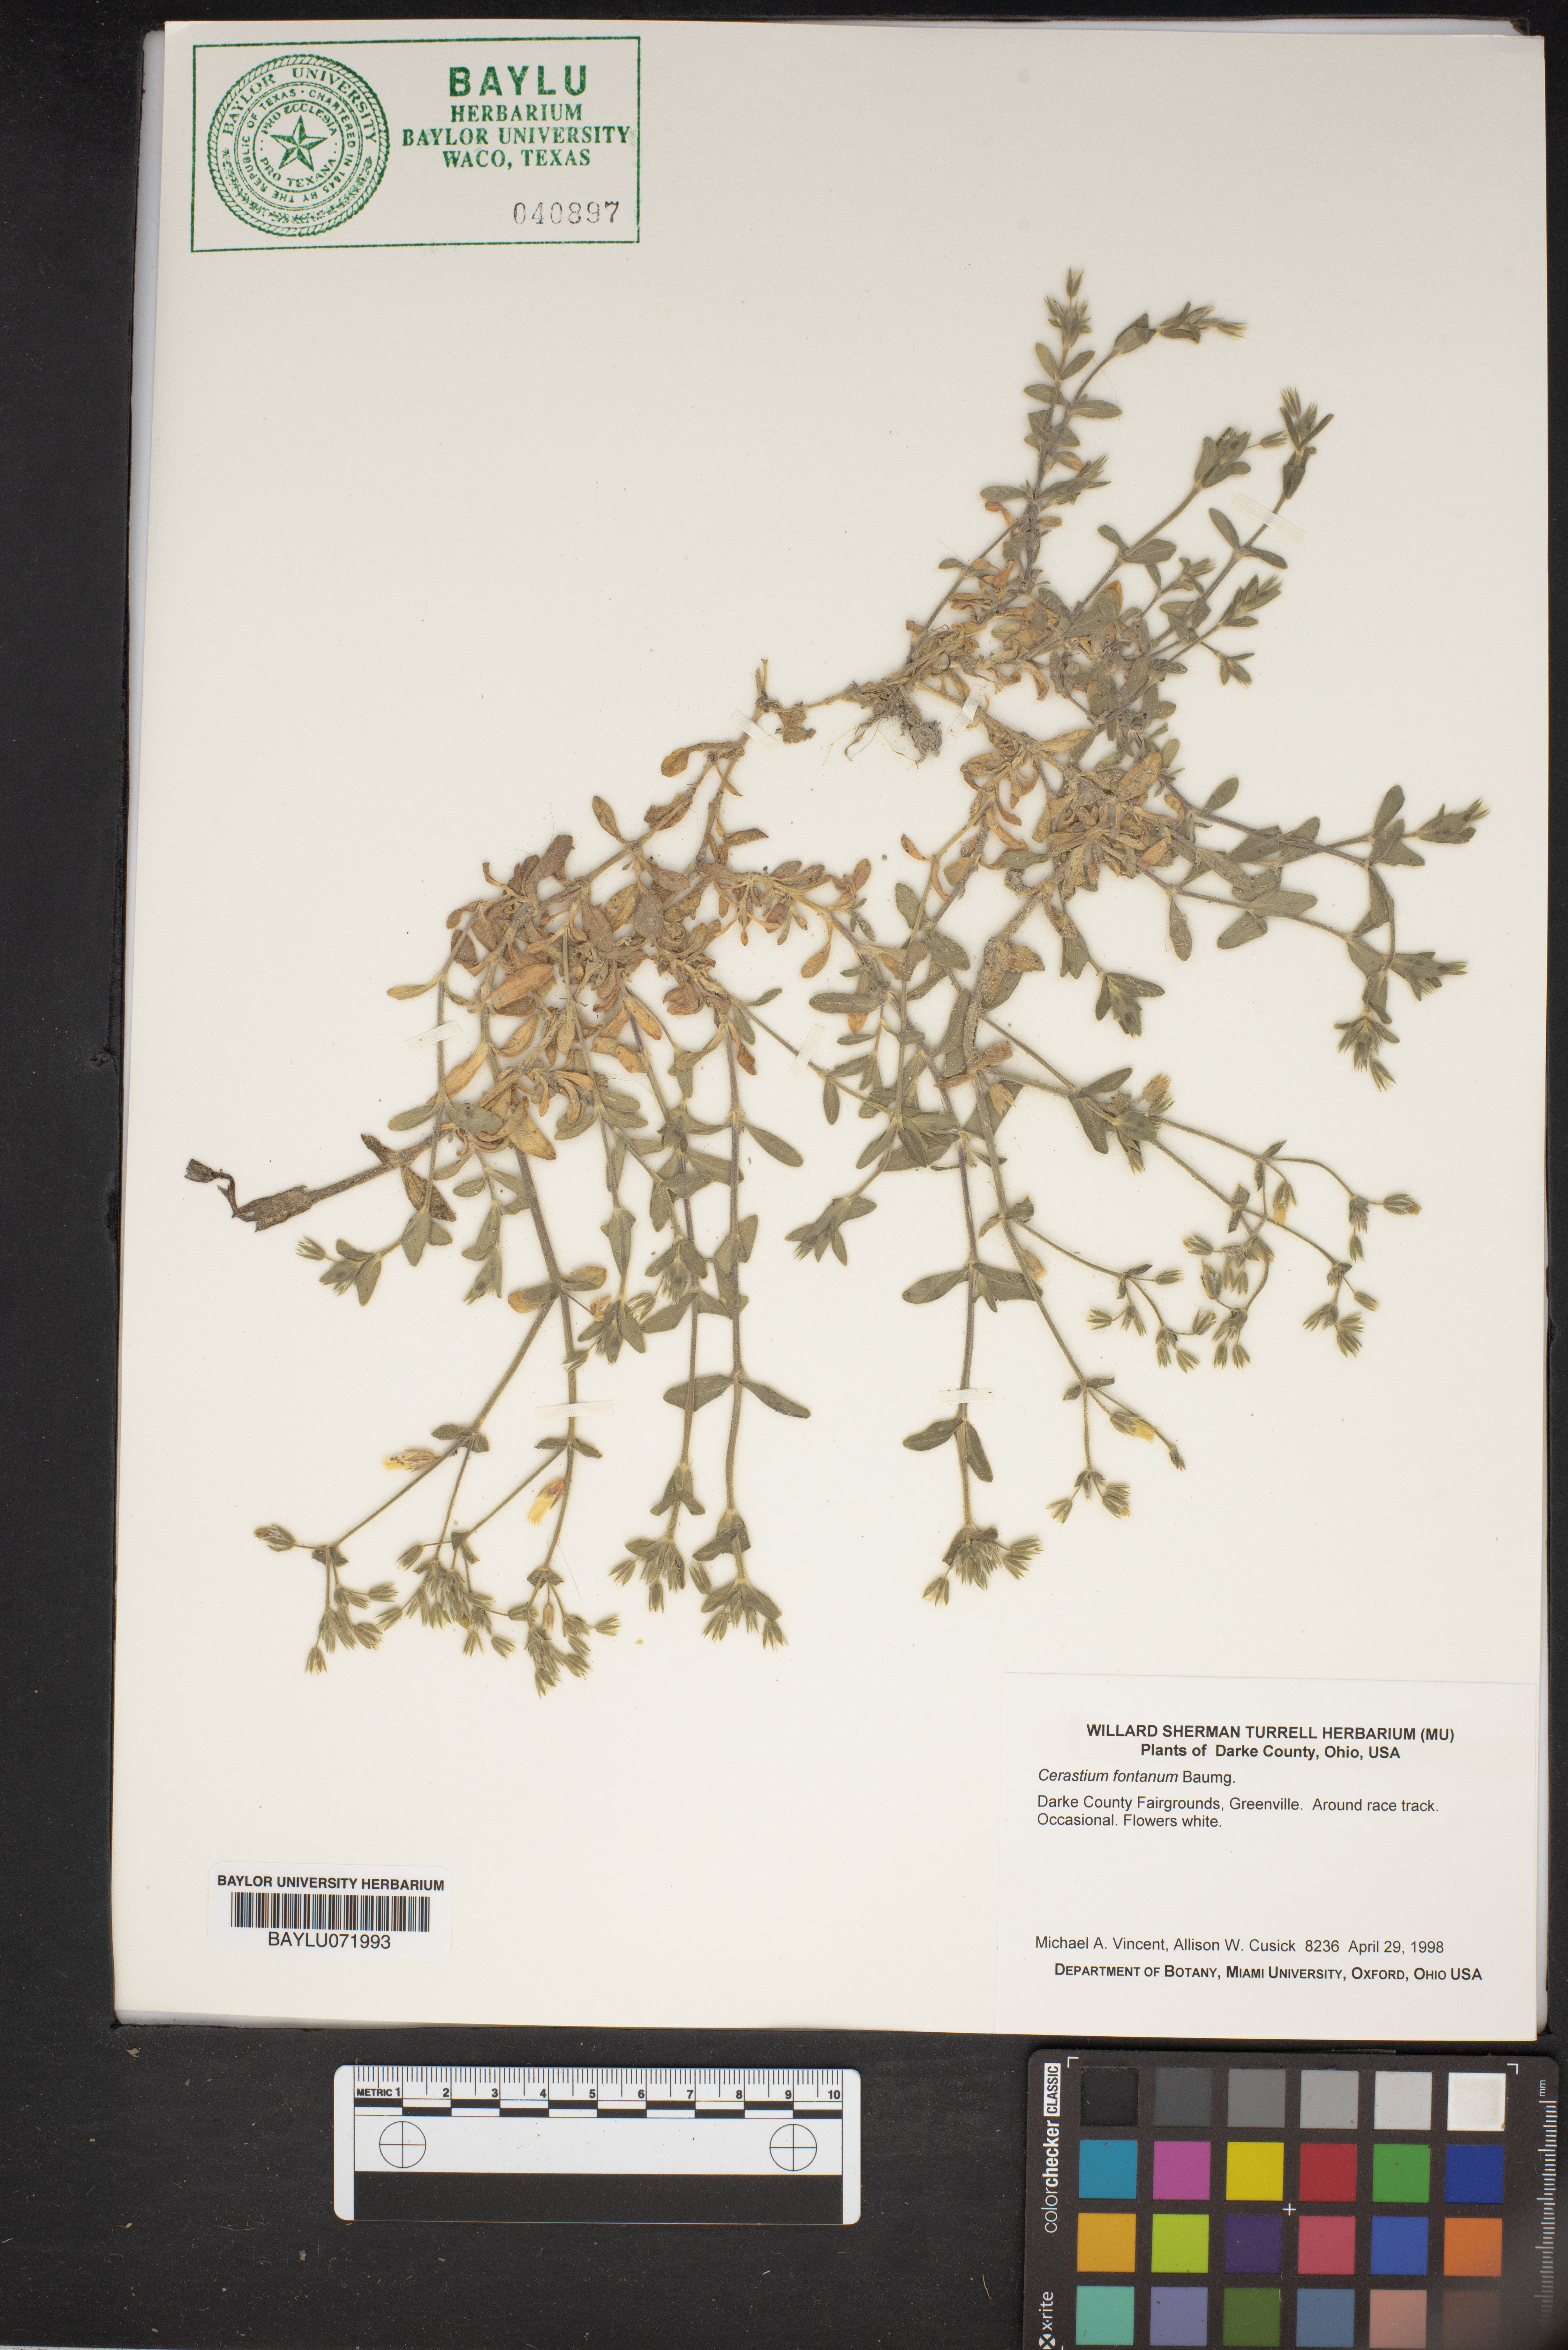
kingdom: Plantae
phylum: Tracheophyta
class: Magnoliopsida
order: Caryophyllales
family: Caryophyllaceae
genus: Cerastium
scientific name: Cerastium fontanum
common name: Common mouse-ear
